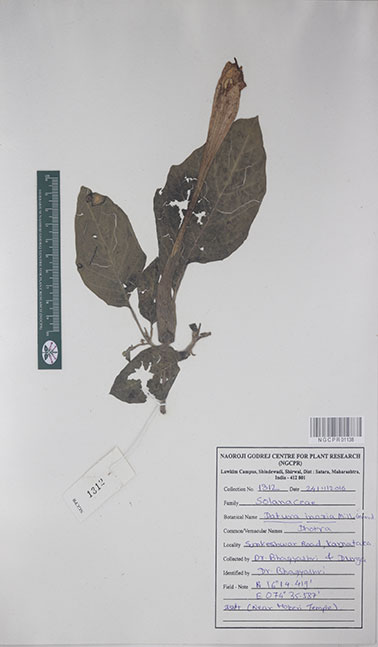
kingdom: Plantae
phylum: Tracheophyta
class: Magnoliopsida
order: Solanales
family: Solanaceae
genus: Datura
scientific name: Datura innoxia
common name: Downy thorn-apple
